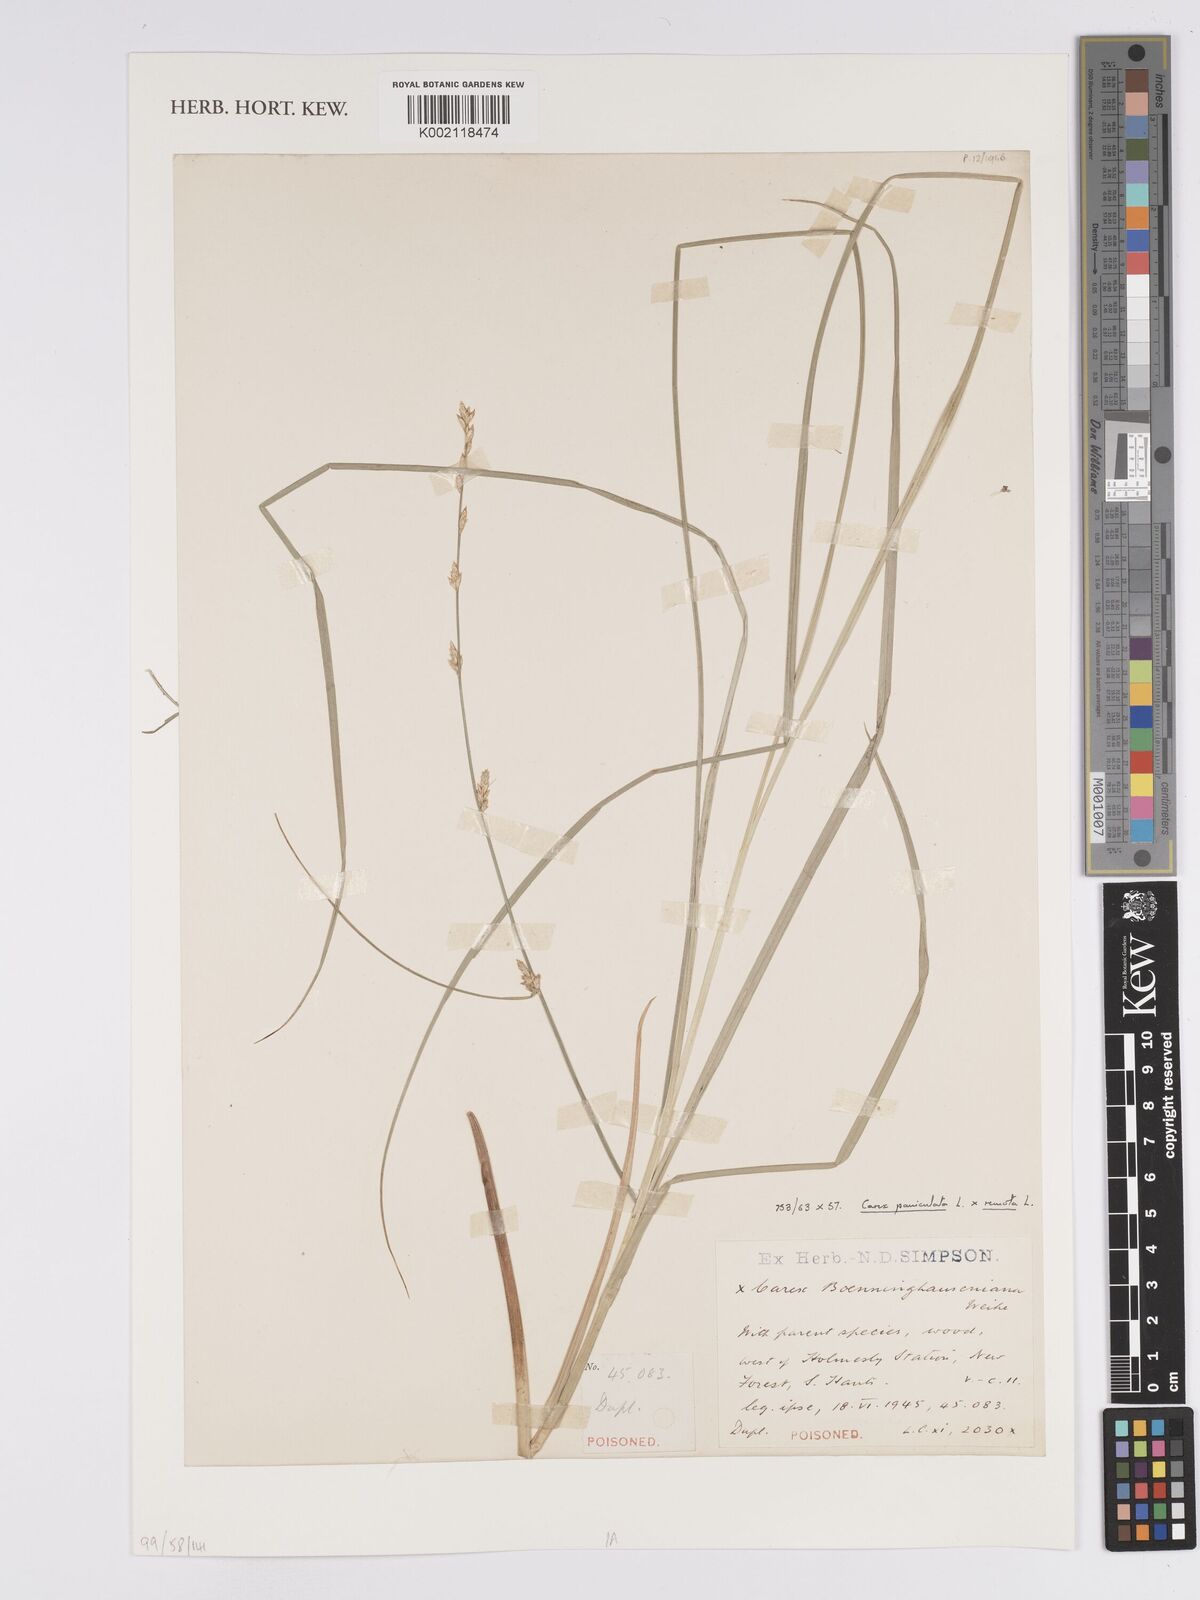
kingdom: Plantae
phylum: Tracheophyta
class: Liliopsida
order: Poales
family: Cyperaceae
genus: Carex
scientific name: Carex boenninghausiana
